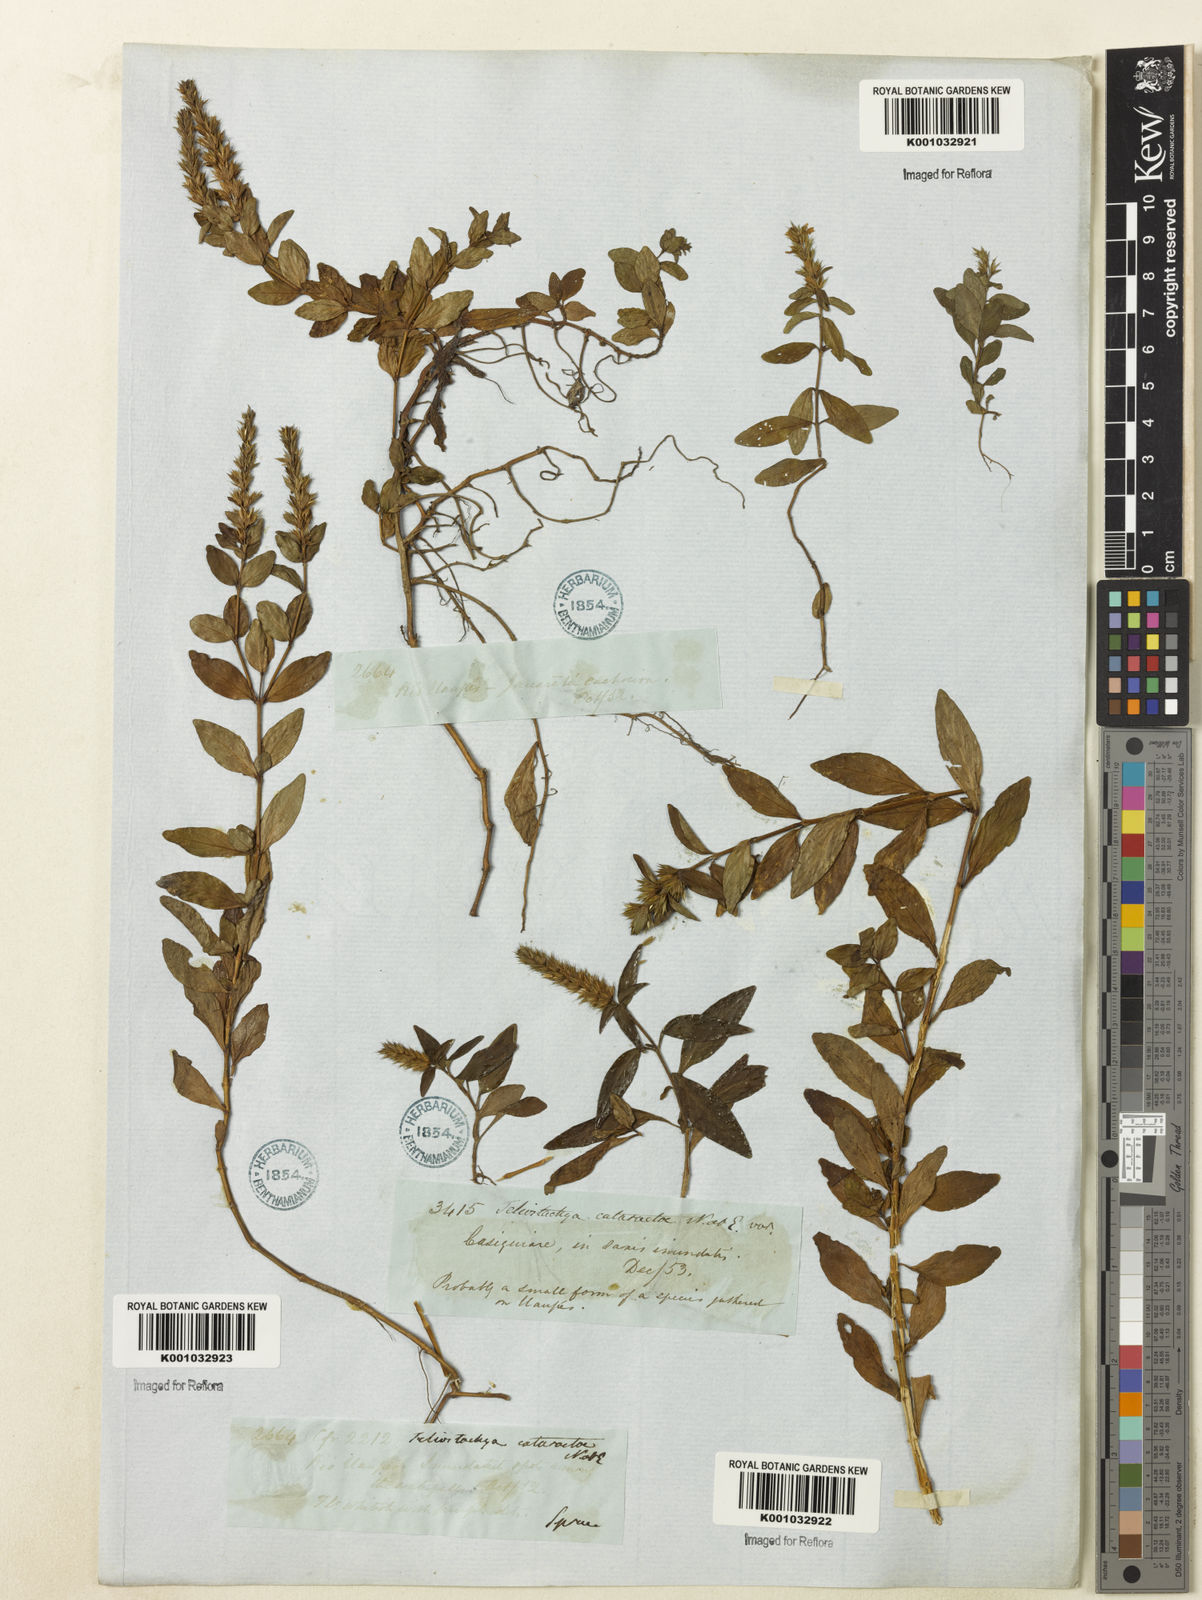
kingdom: Plantae
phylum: Tracheophyta
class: Magnoliopsida
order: Lamiales
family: Acanthaceae
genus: Lepidagathis
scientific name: Lepidagathis alopecuroidea
